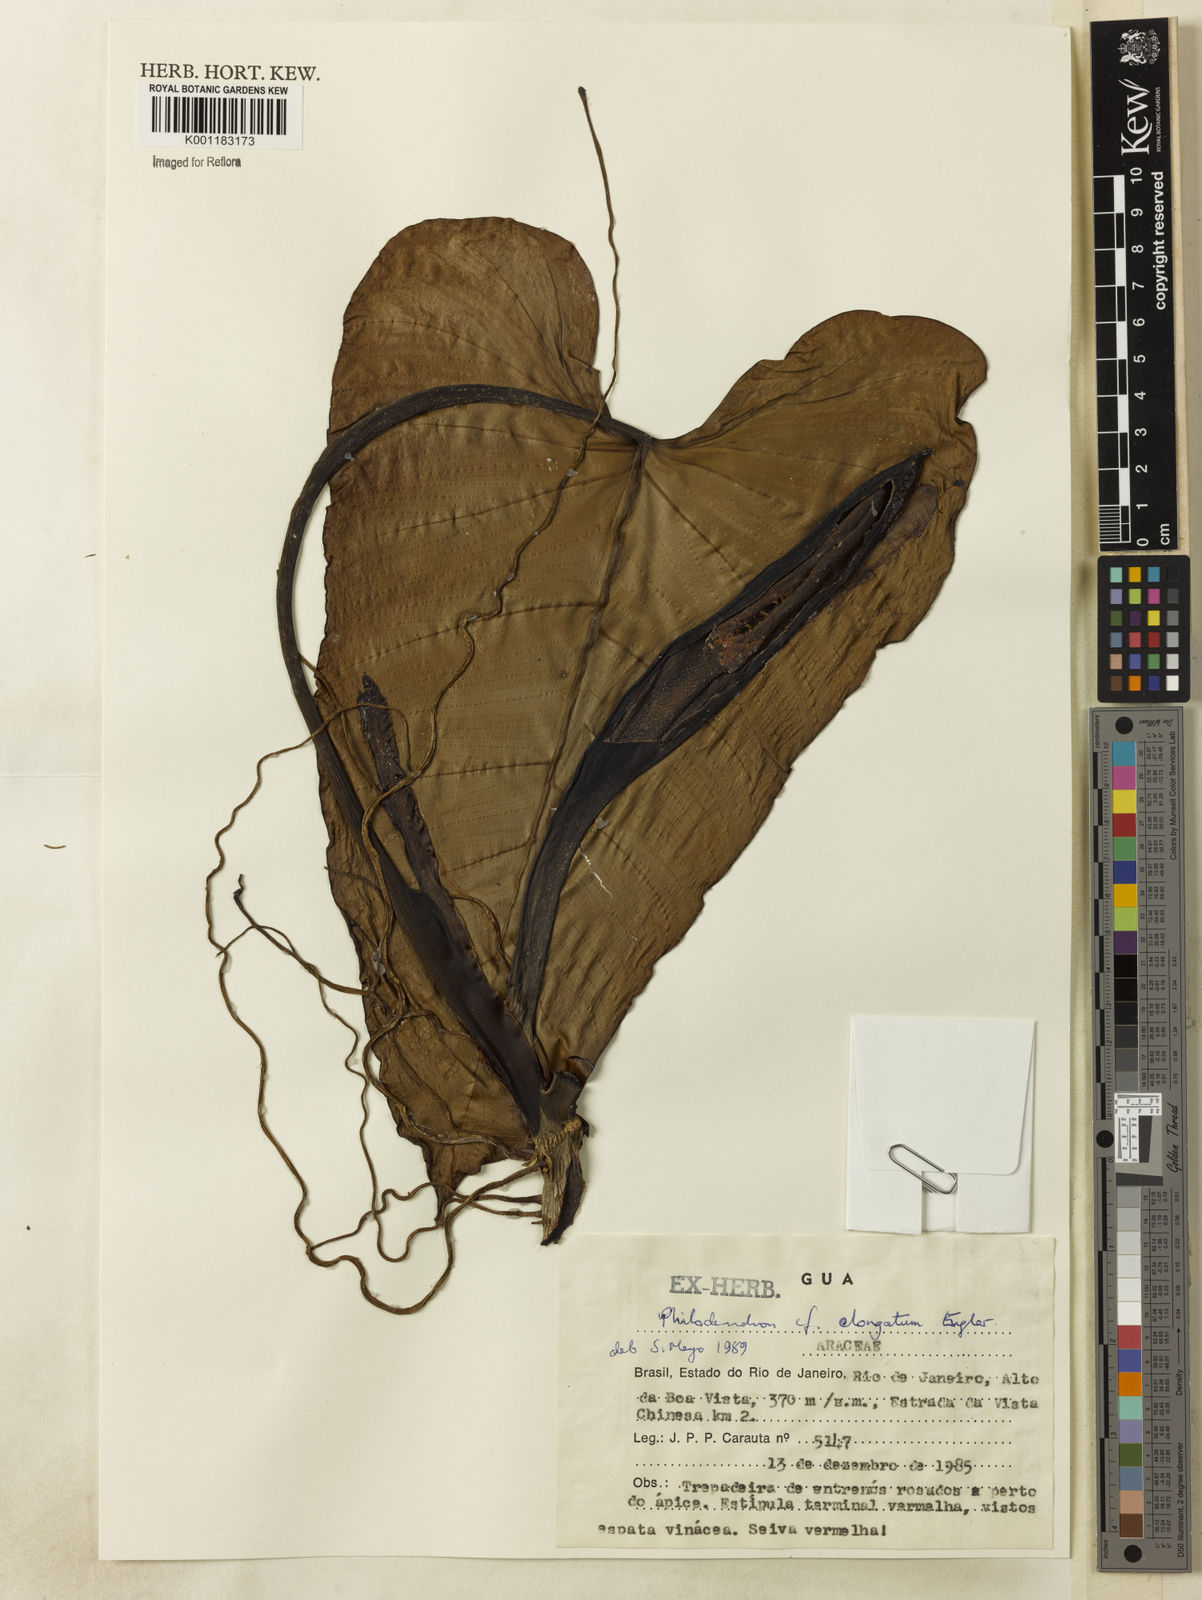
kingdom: Plantae
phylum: Tracheophyta
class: Liliopsida
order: Alismatales
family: Araceae
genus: Philodendron
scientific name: Philodendron curvilobum
